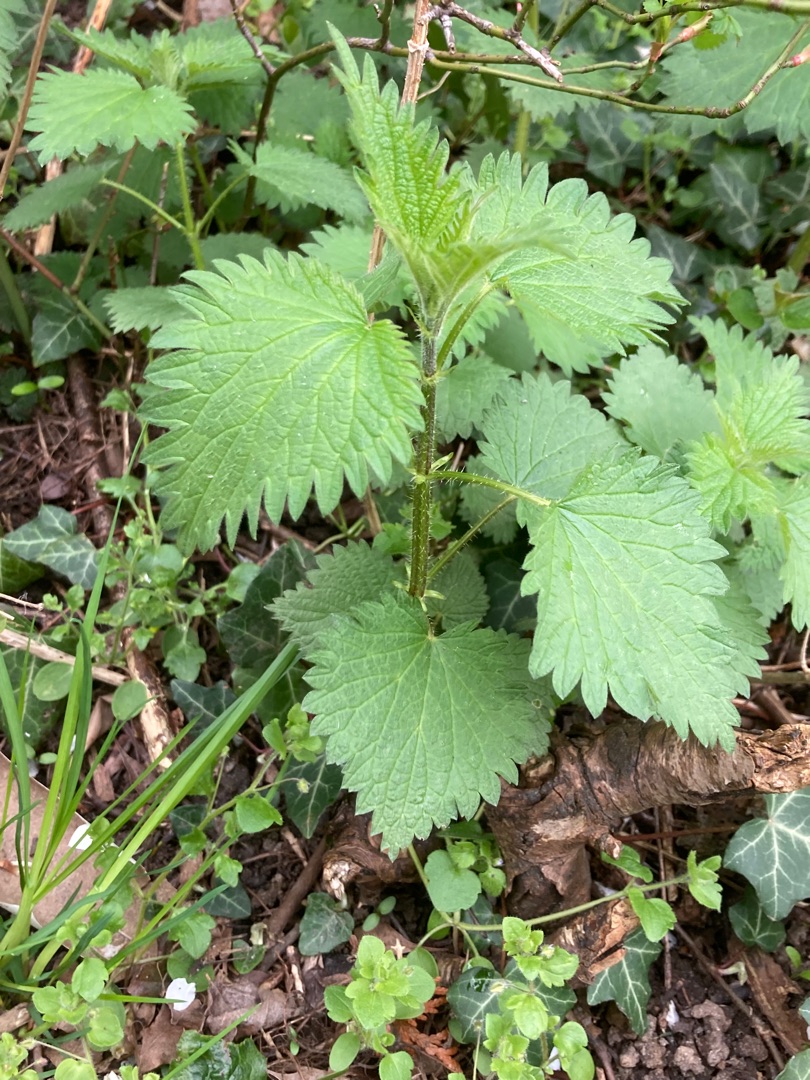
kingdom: Plantae
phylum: Tracheophyta
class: Magnoliopsida
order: Rosales
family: Urticaceae
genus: Urtica
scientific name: Urtica dioica
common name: Stor nælde
